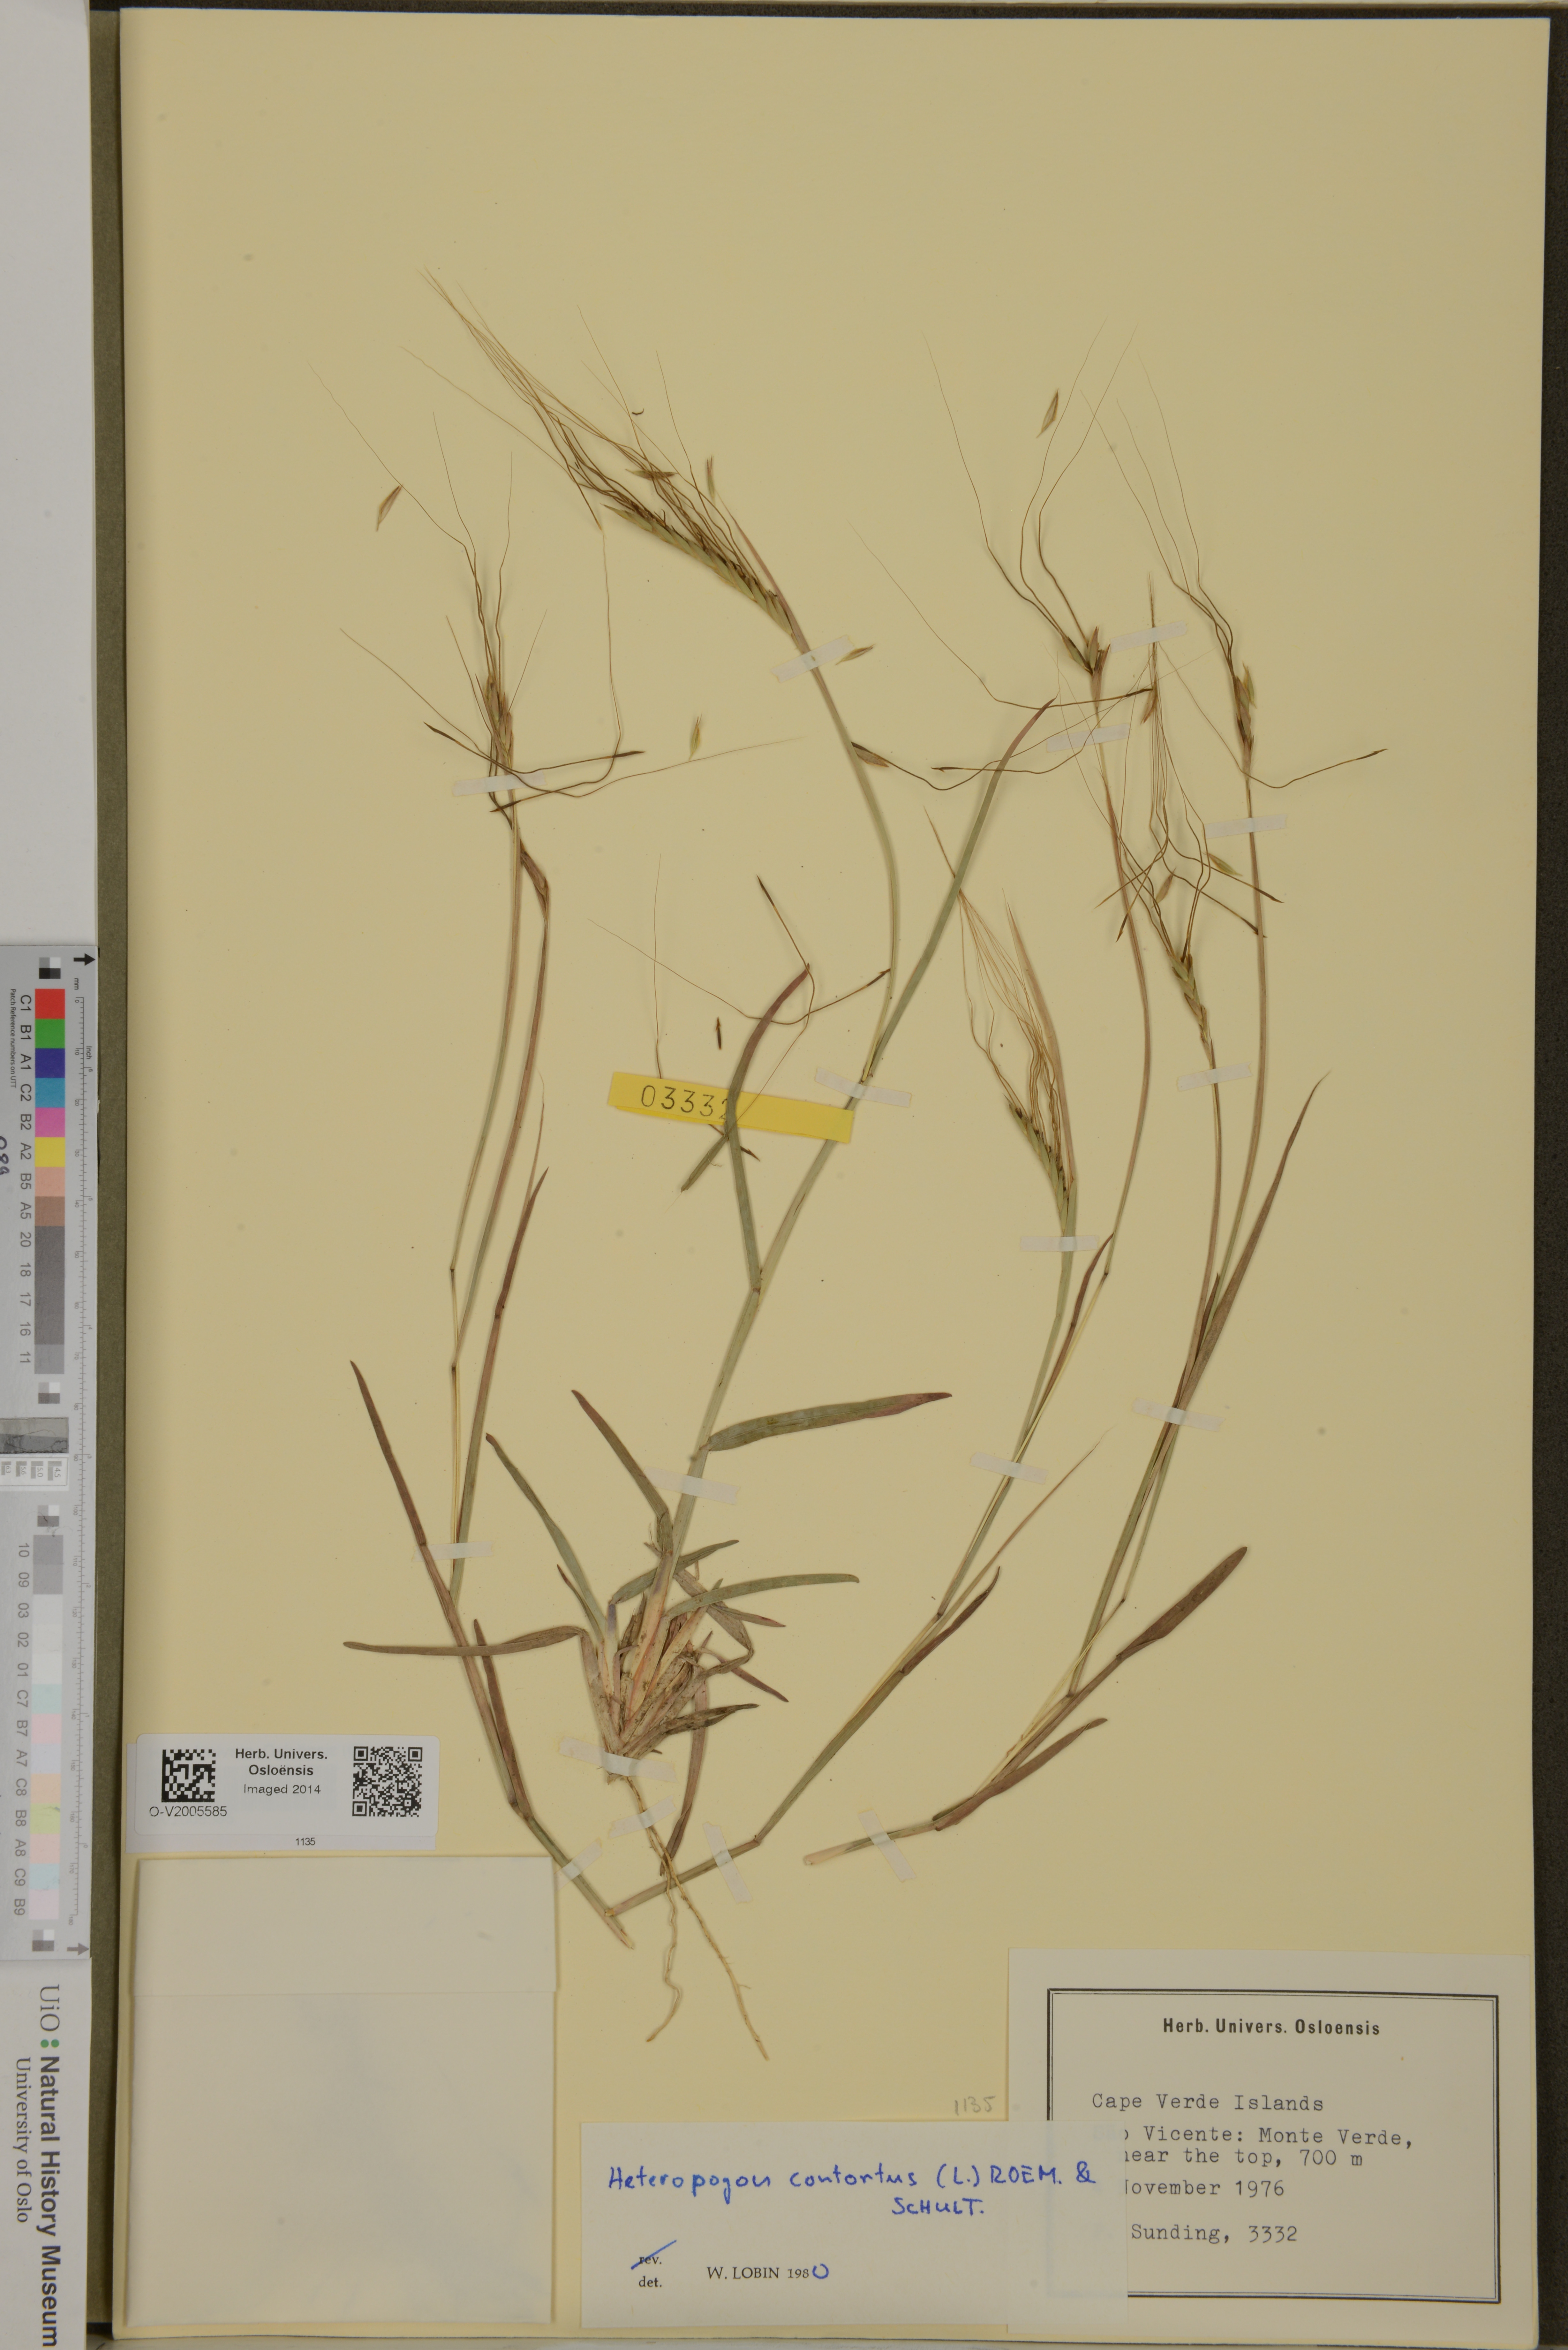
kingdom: Plantae
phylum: Tracheophyta
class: Liliopsida
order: Poales
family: Poaceae
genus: Heteropogon
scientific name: Heteropogon contortus
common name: Tanglehead
